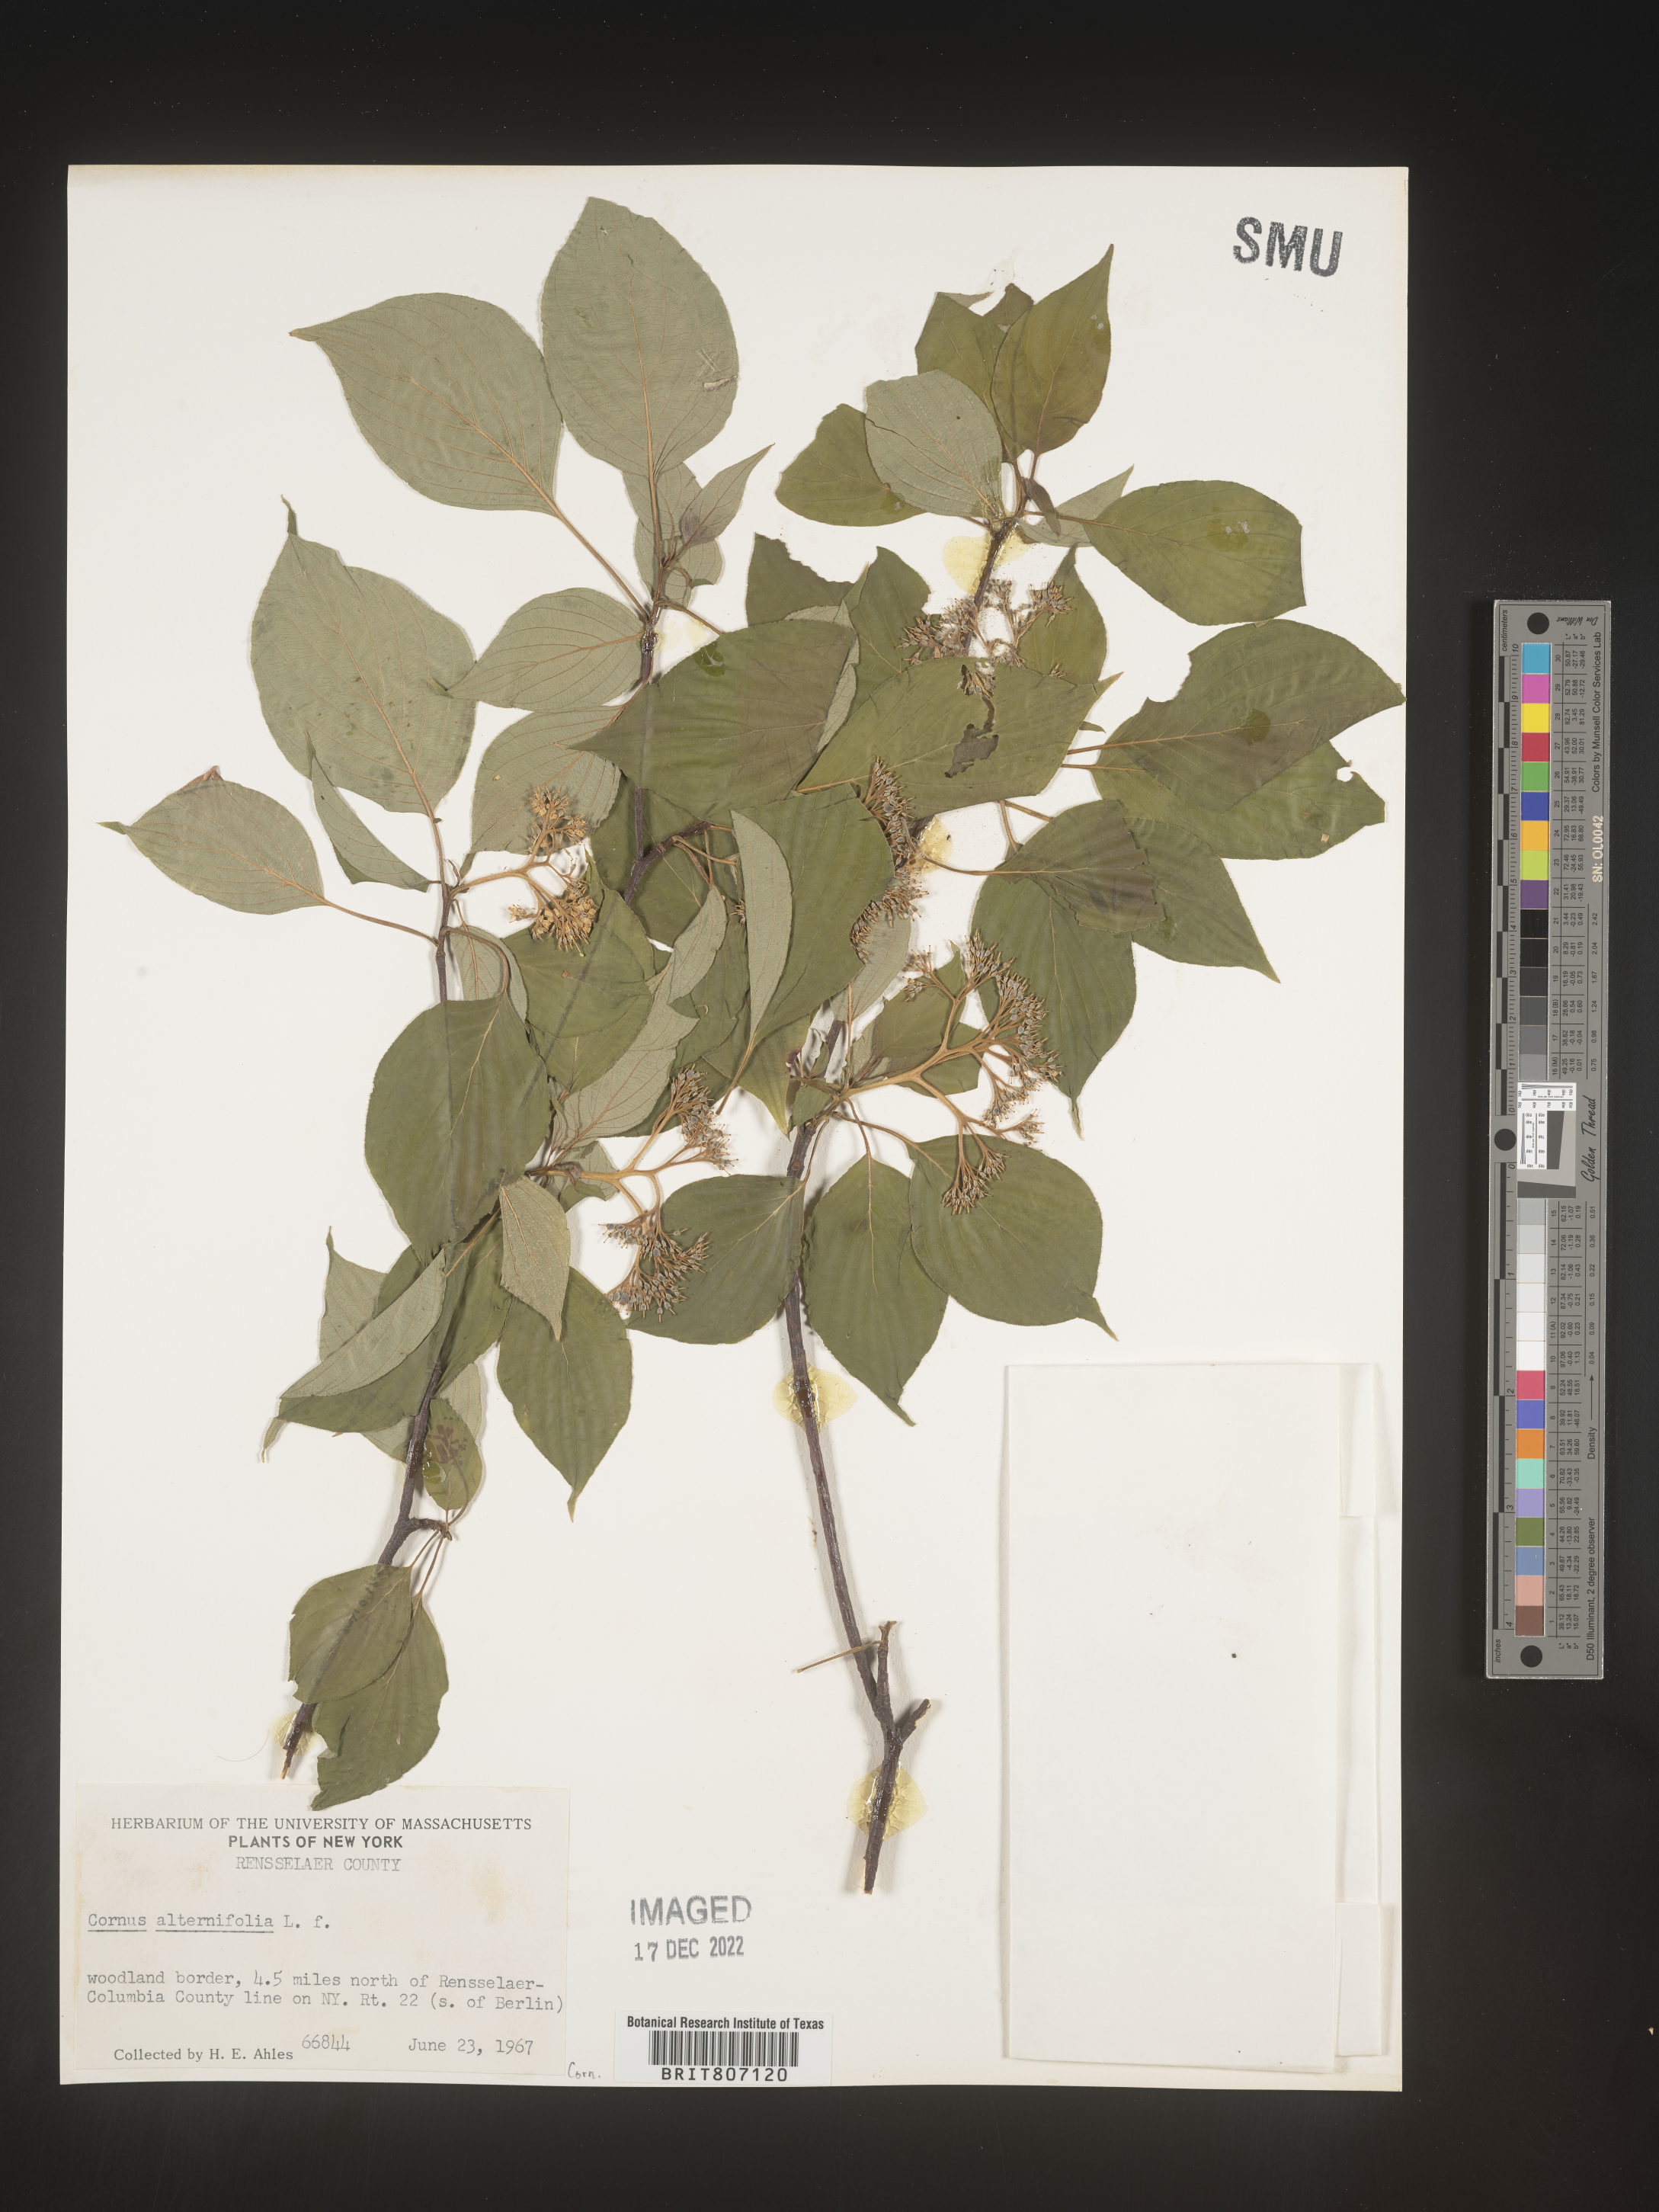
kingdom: Plantae
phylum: Tracheophyta
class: Magnoliopsida
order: Cornales
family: Cornaceae
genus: Cornus
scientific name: Cornus alternifolia
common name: Pagoda dogwood
